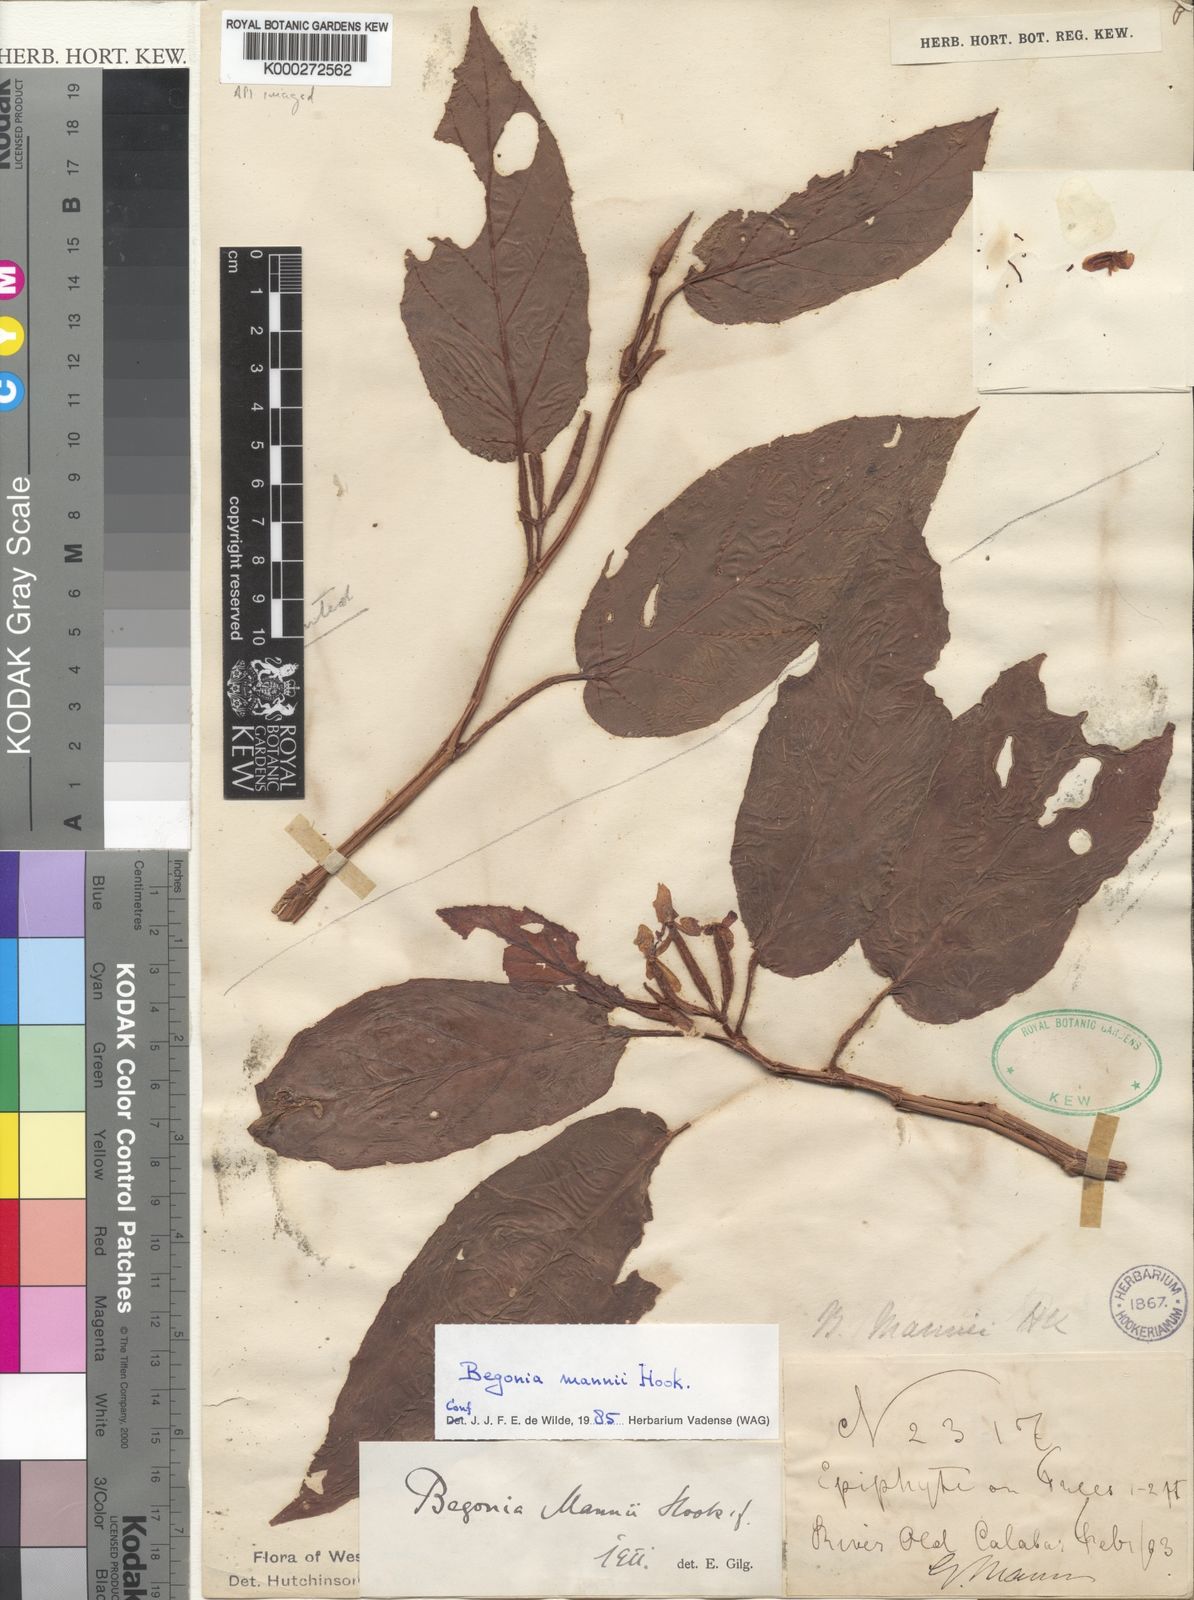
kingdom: Plantae
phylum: Tracheophyta
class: Magnoliopsida
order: Cucurbitales
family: Begoniaceae
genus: Begonia
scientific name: Begonia mannii
